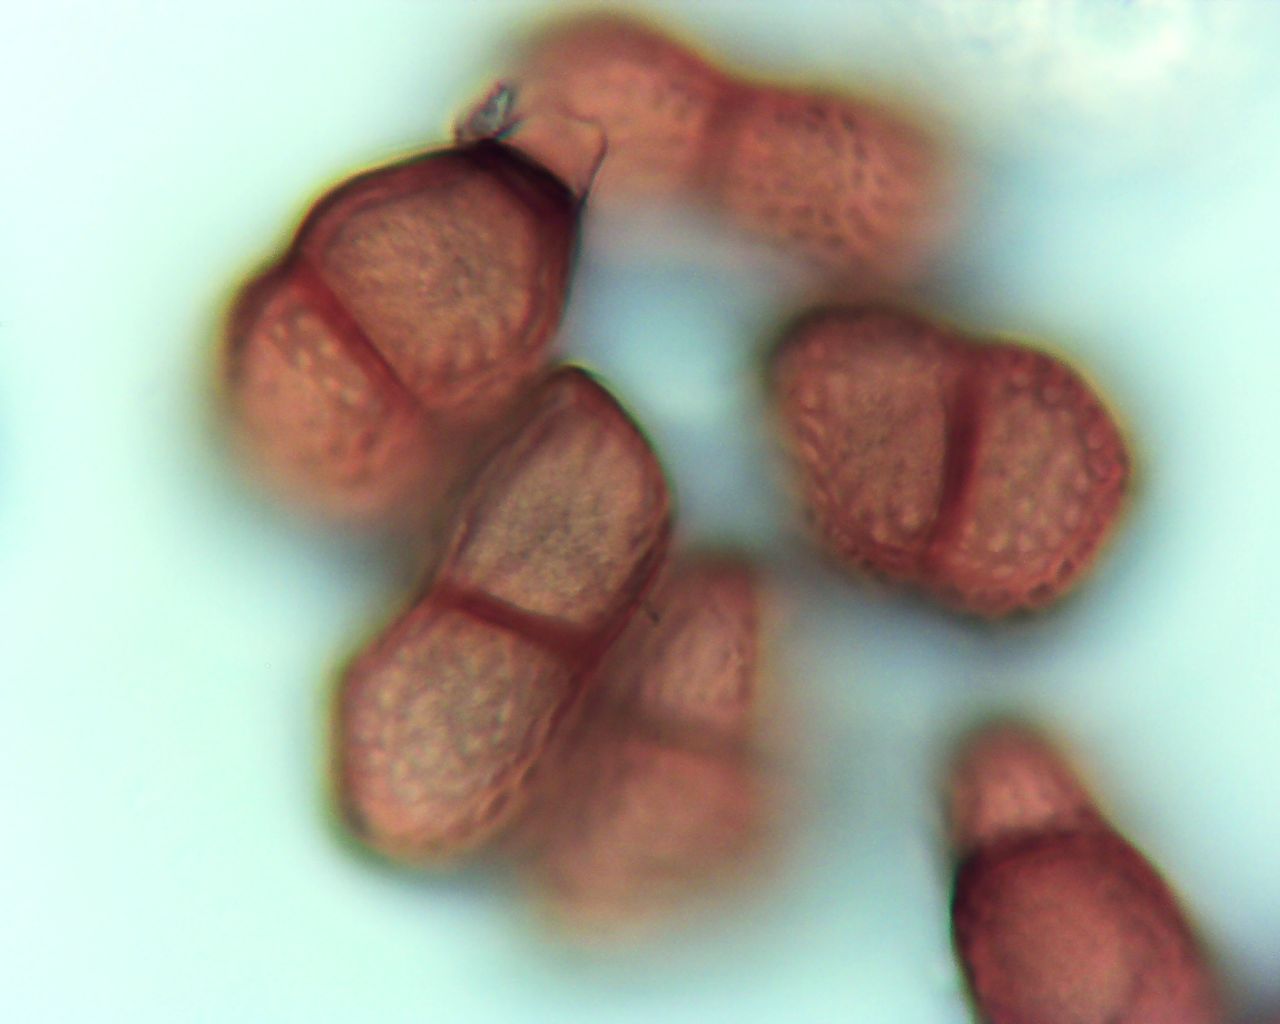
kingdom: Fungi
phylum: Basidiomycota
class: Pucciniomycetes
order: Pucciniales
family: Pucciniaceae
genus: Puccinia
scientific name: Puccinia chaerophylli
